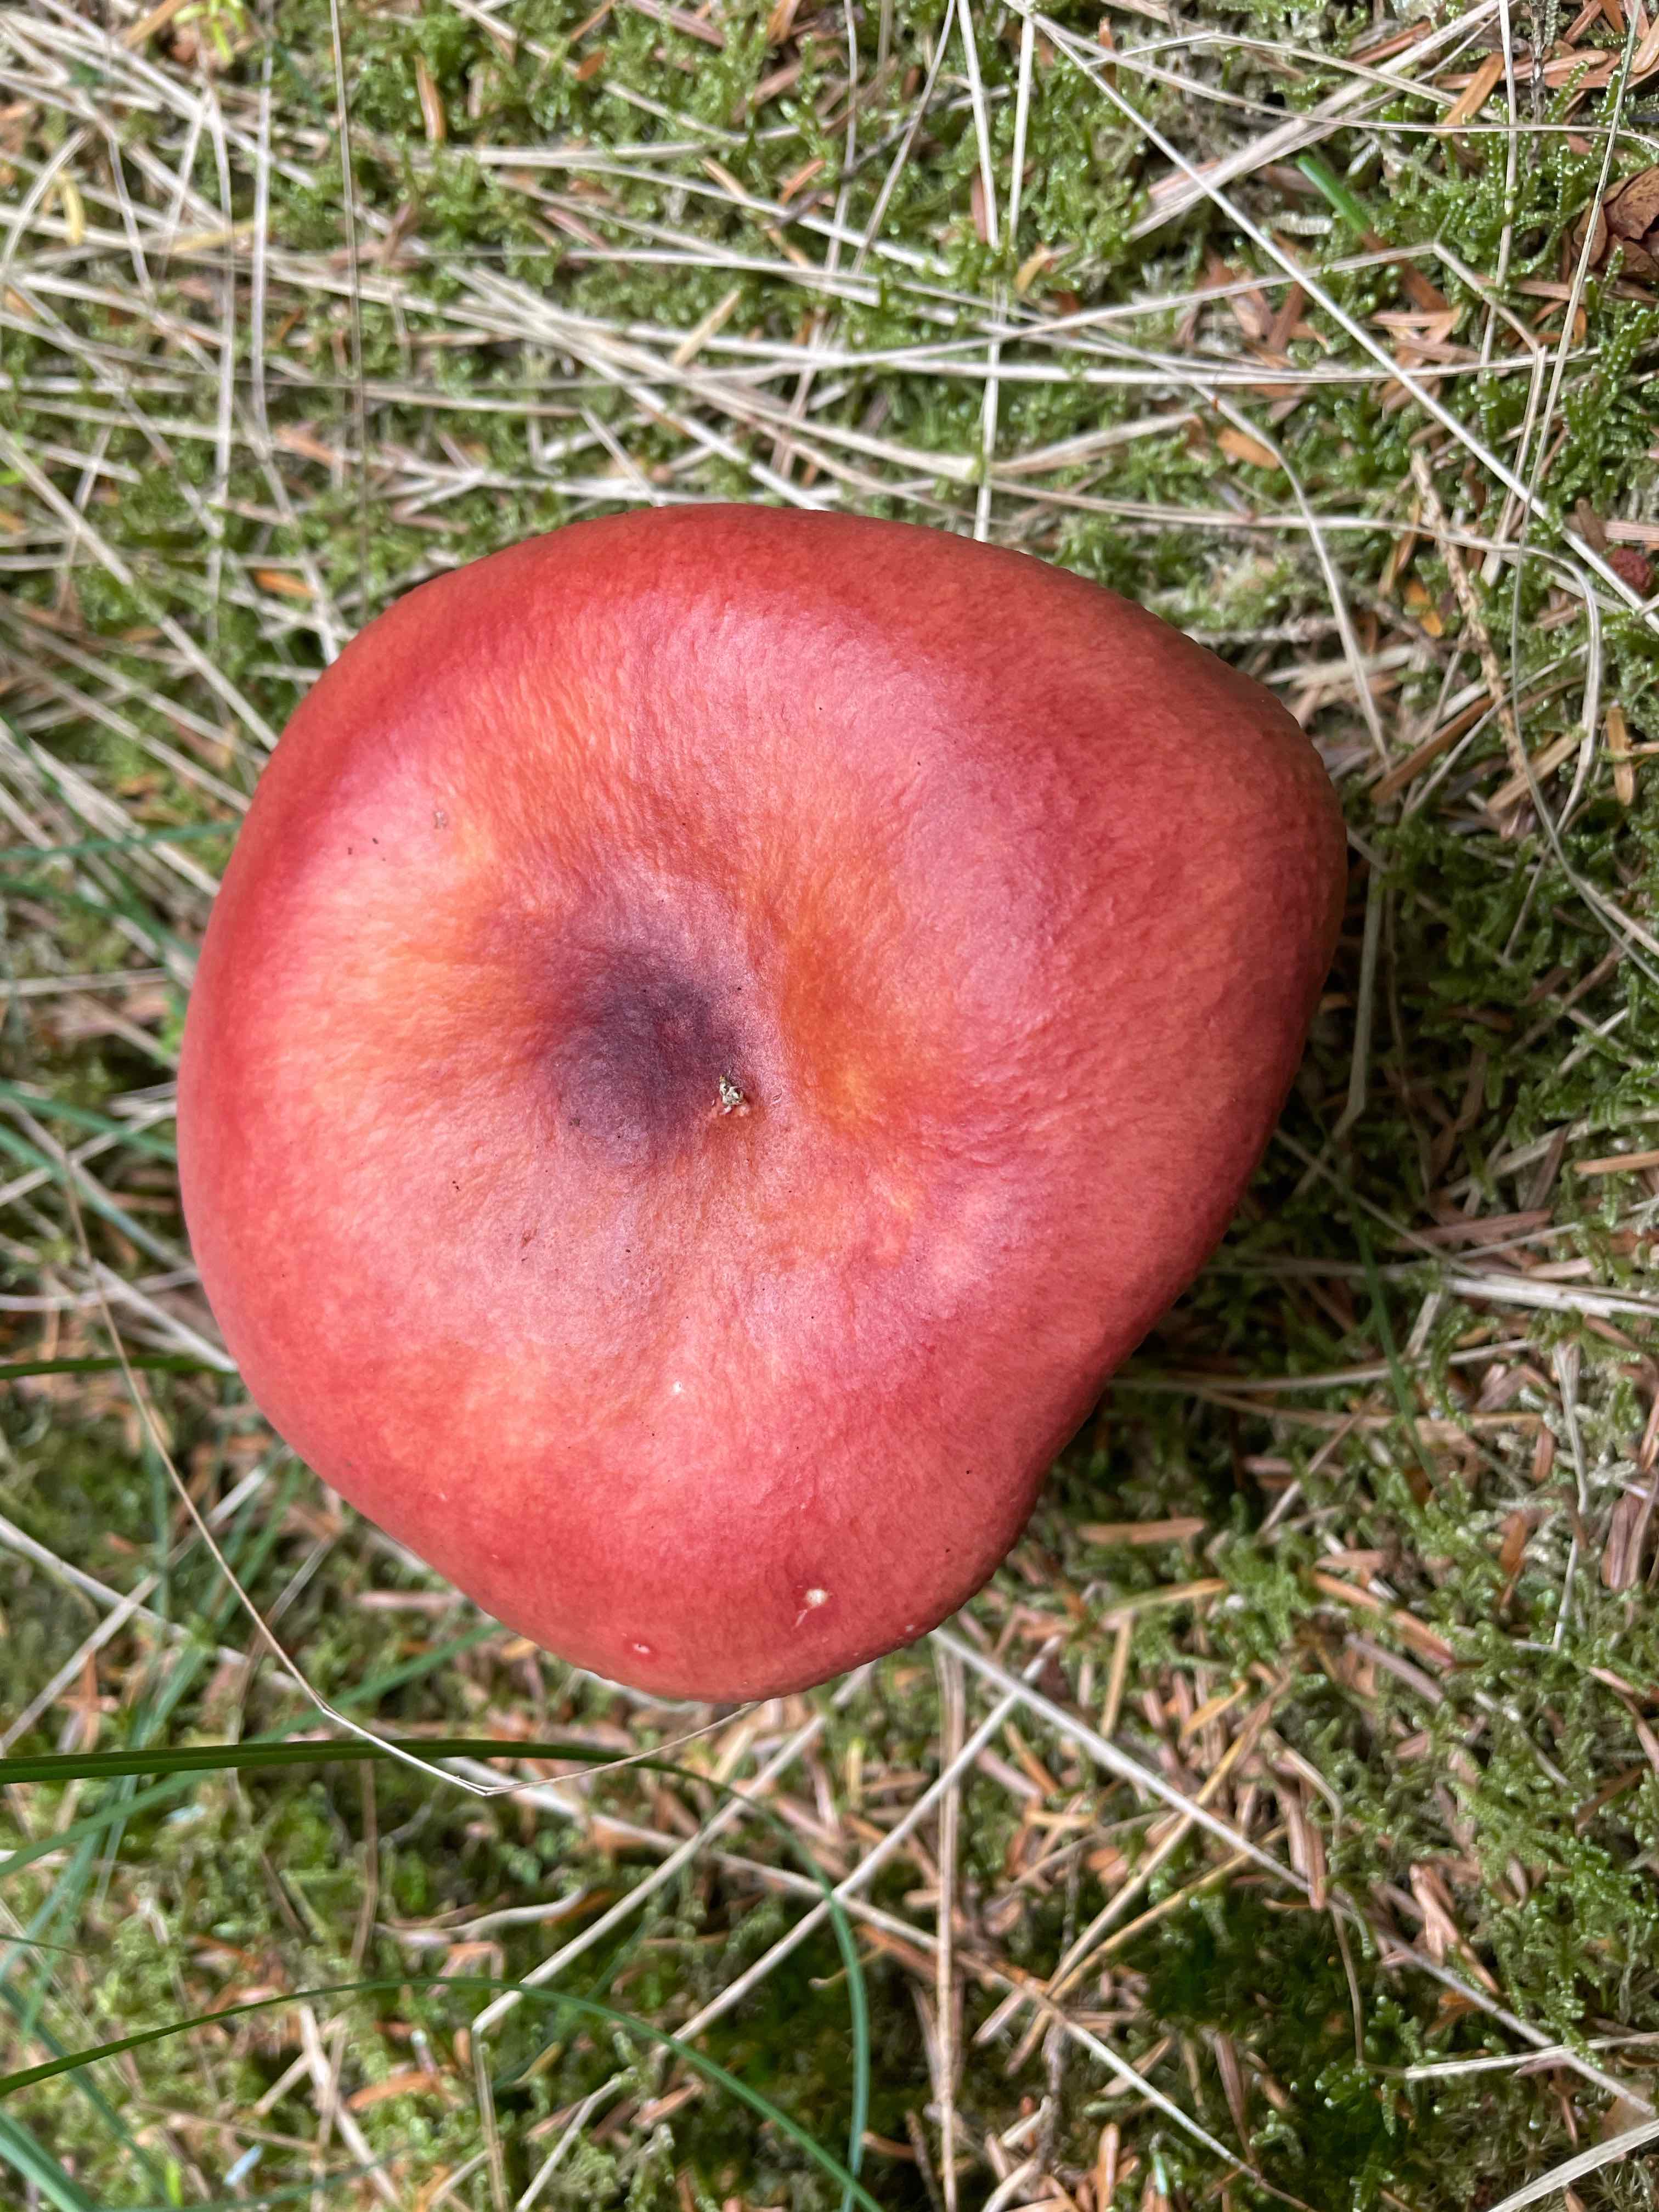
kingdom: Fungi
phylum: Basidiomycota
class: Agaricomycetes
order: Russulales
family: Russulaceae
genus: Russula
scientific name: Russula paludosa
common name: prægtig skørhat
